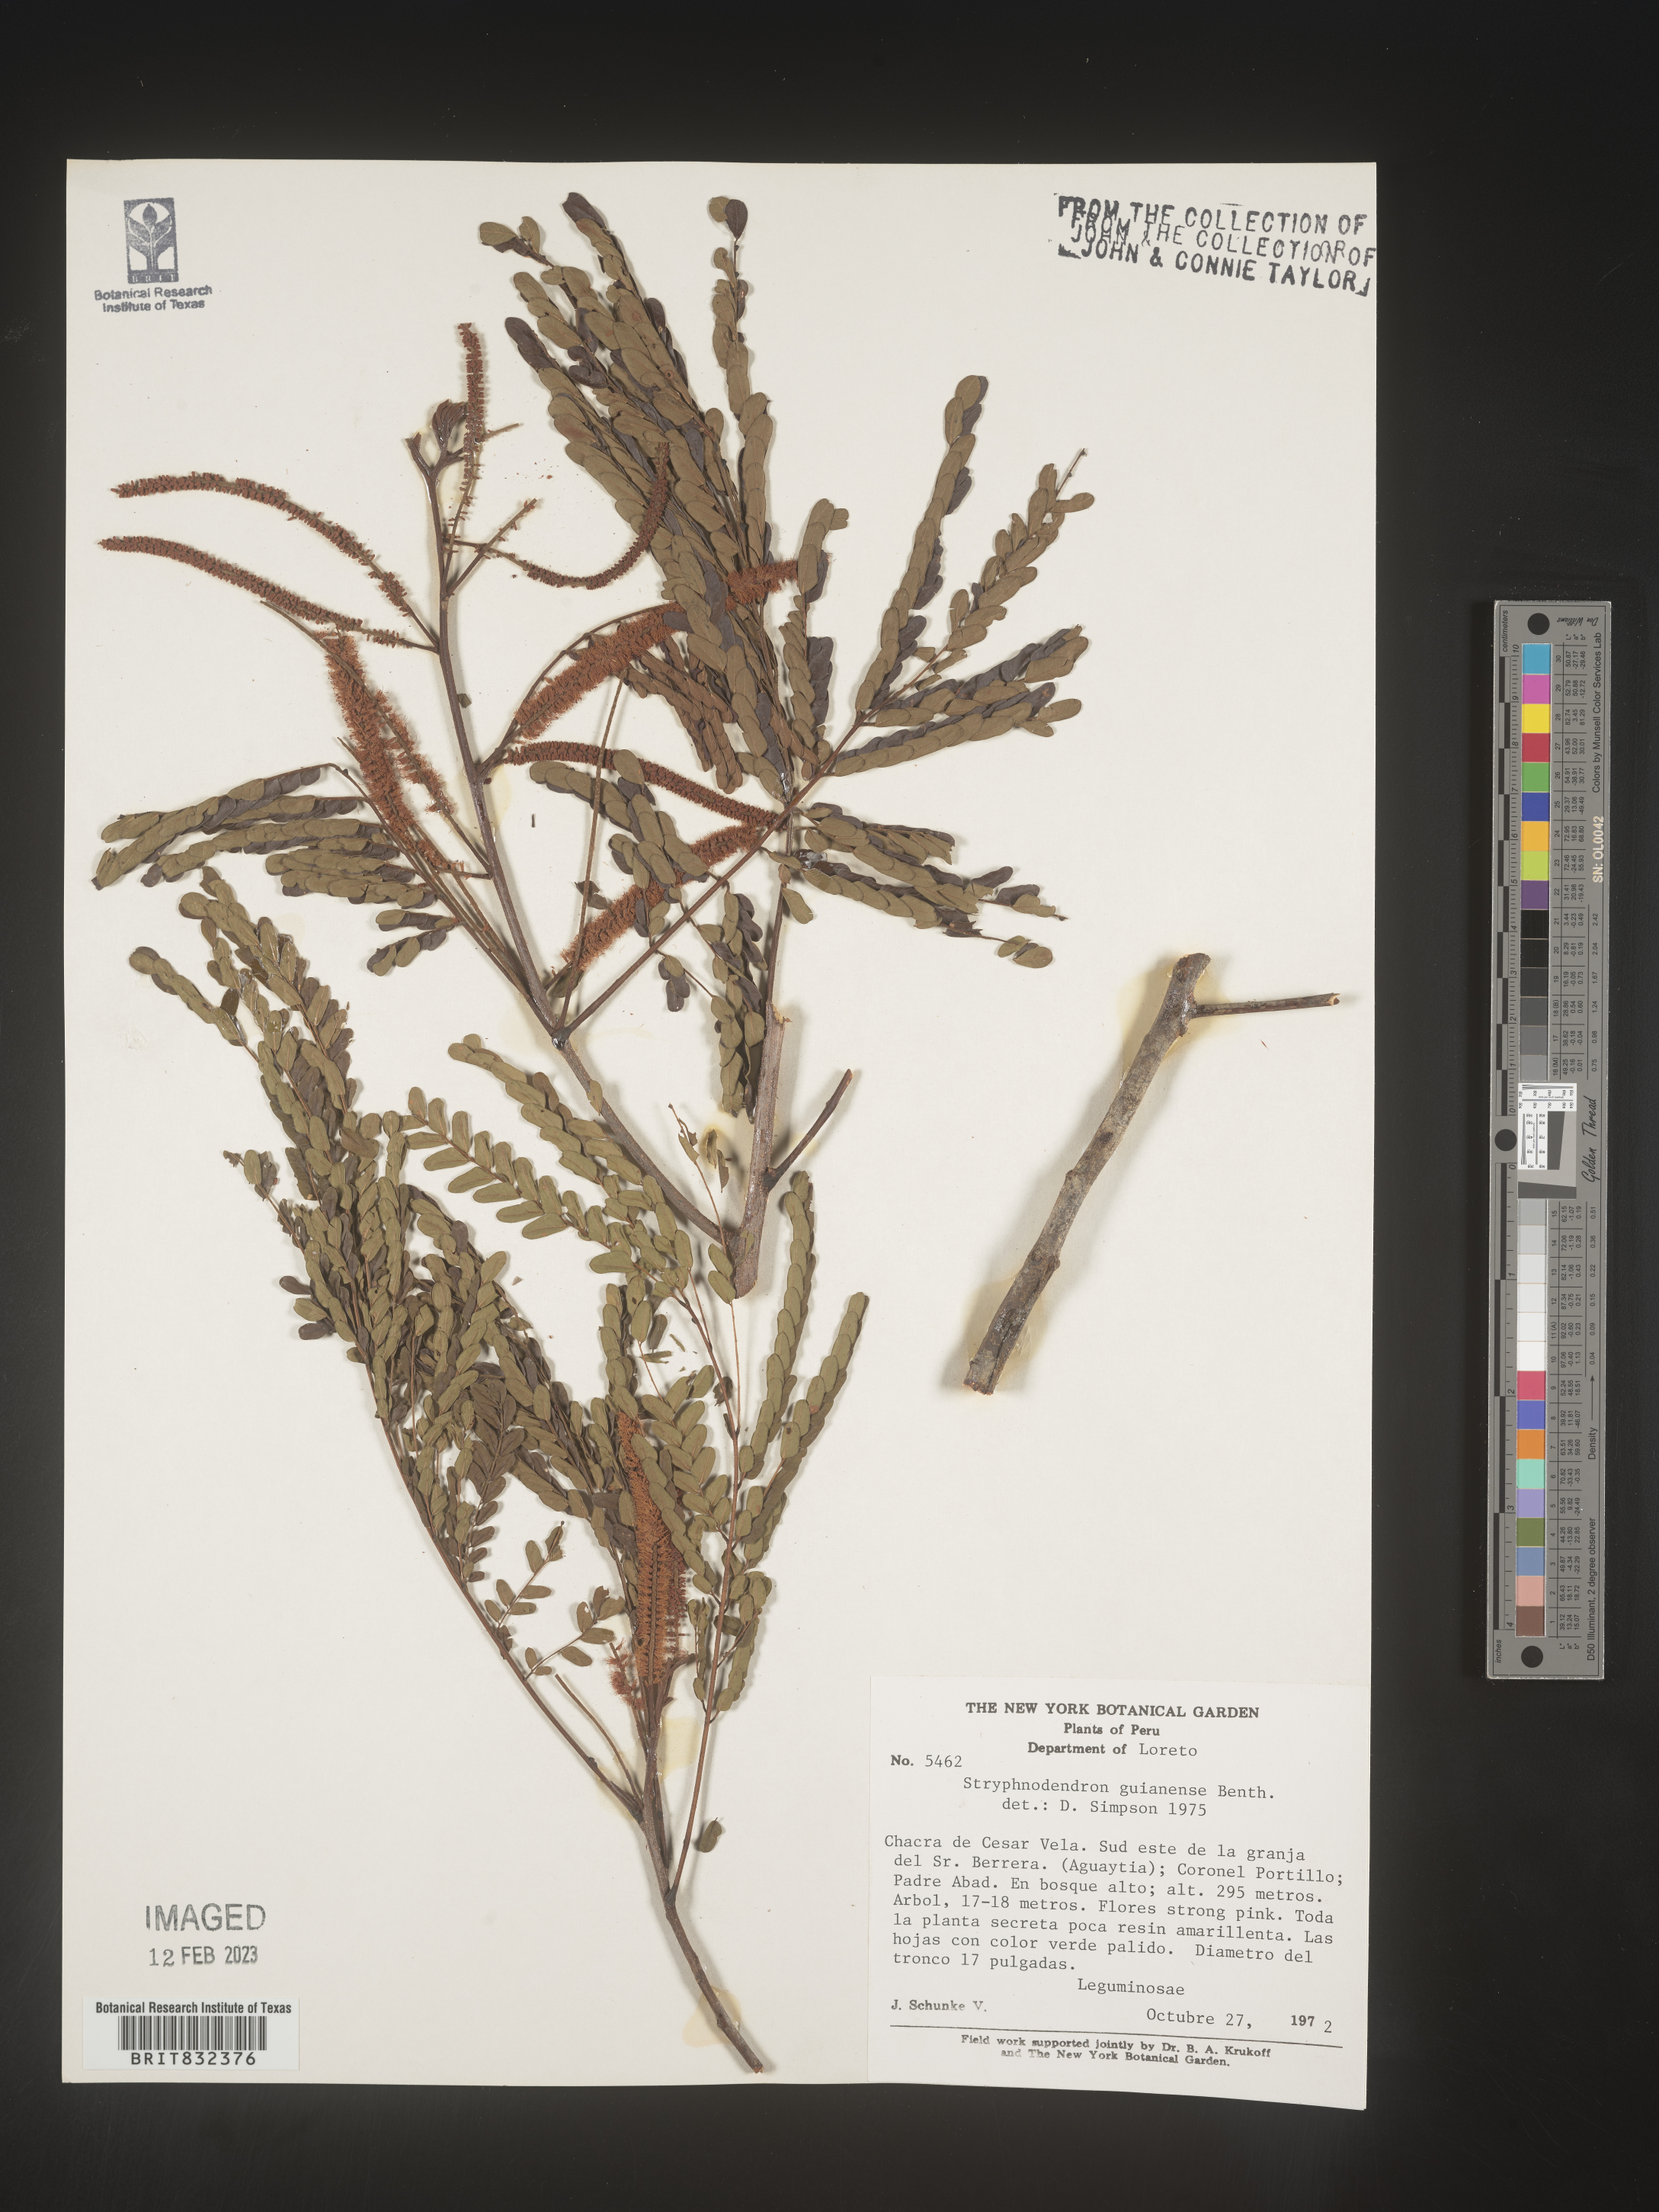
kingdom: Plantae
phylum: Tracheophyta
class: Magnoliopsida
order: Fabales
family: Fabaceae
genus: Stryphnodendron
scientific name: Stryphnodendron
